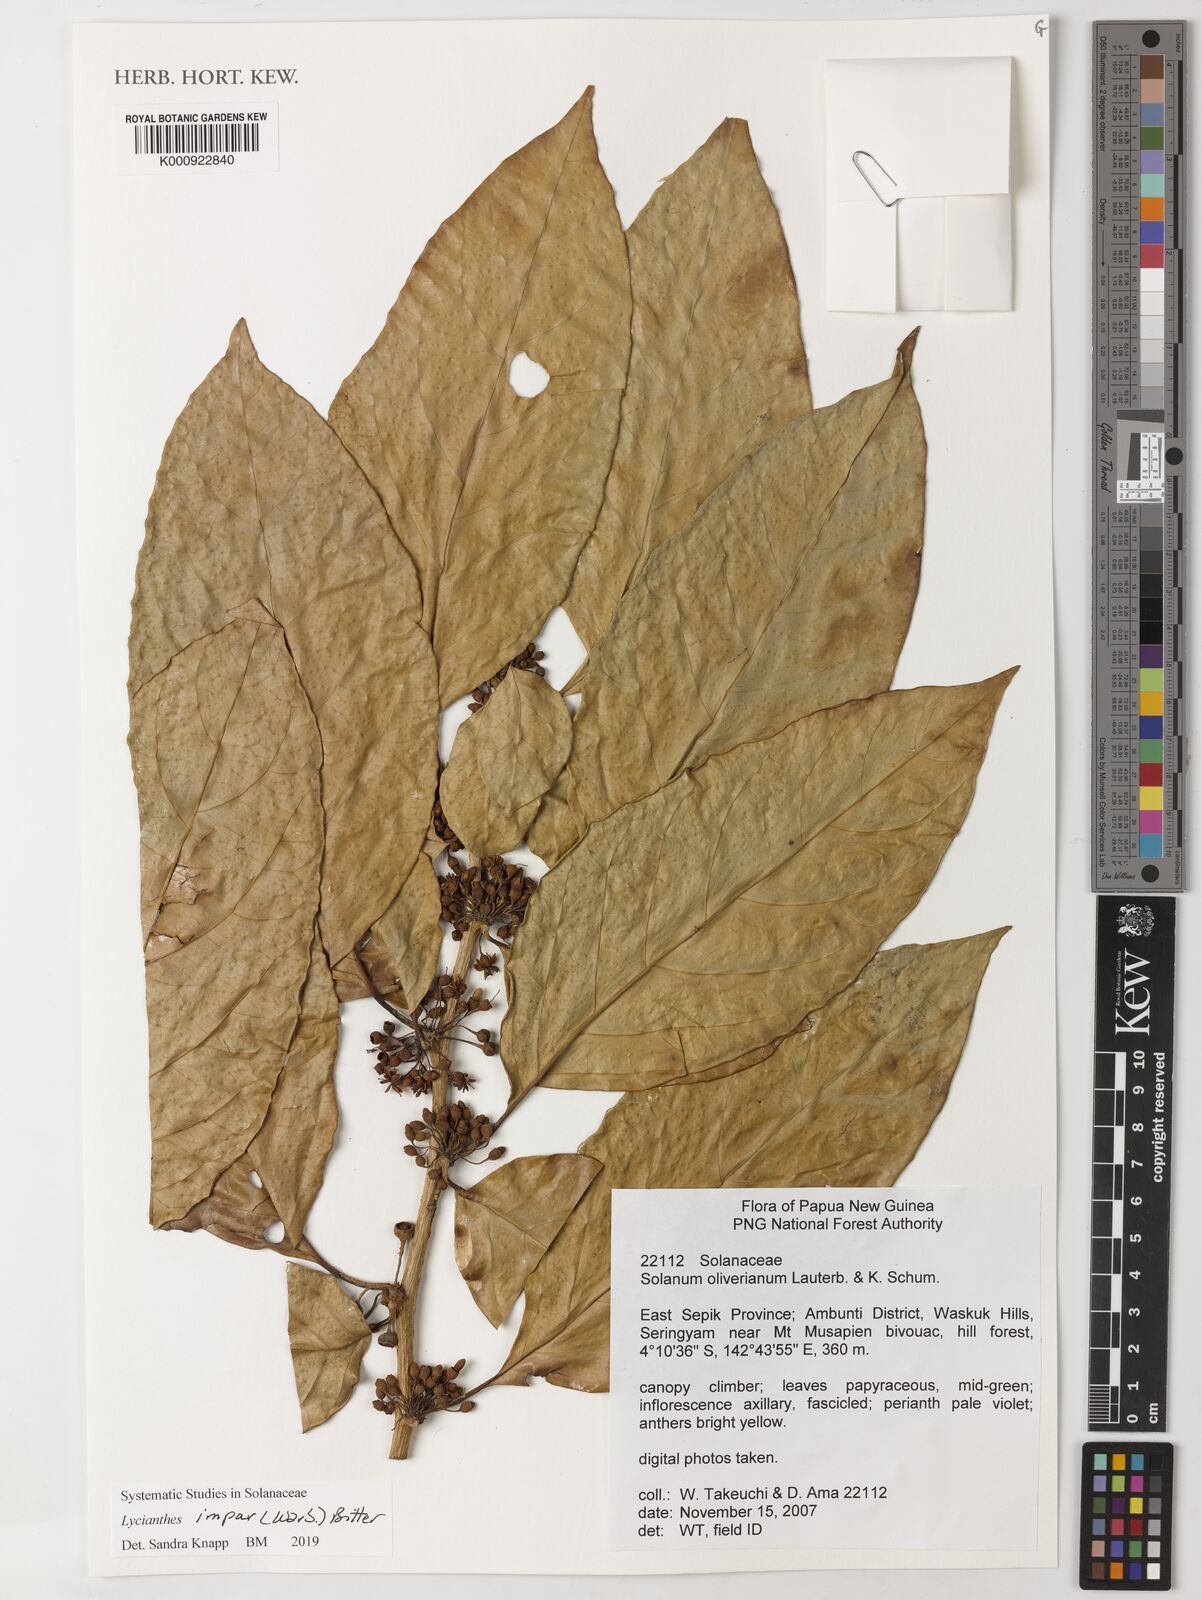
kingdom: Plantae
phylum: Tracheophyta
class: Magnoliopsida
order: Solanales
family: Solanaceae
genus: Lycianthes
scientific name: Lycianthes impar
